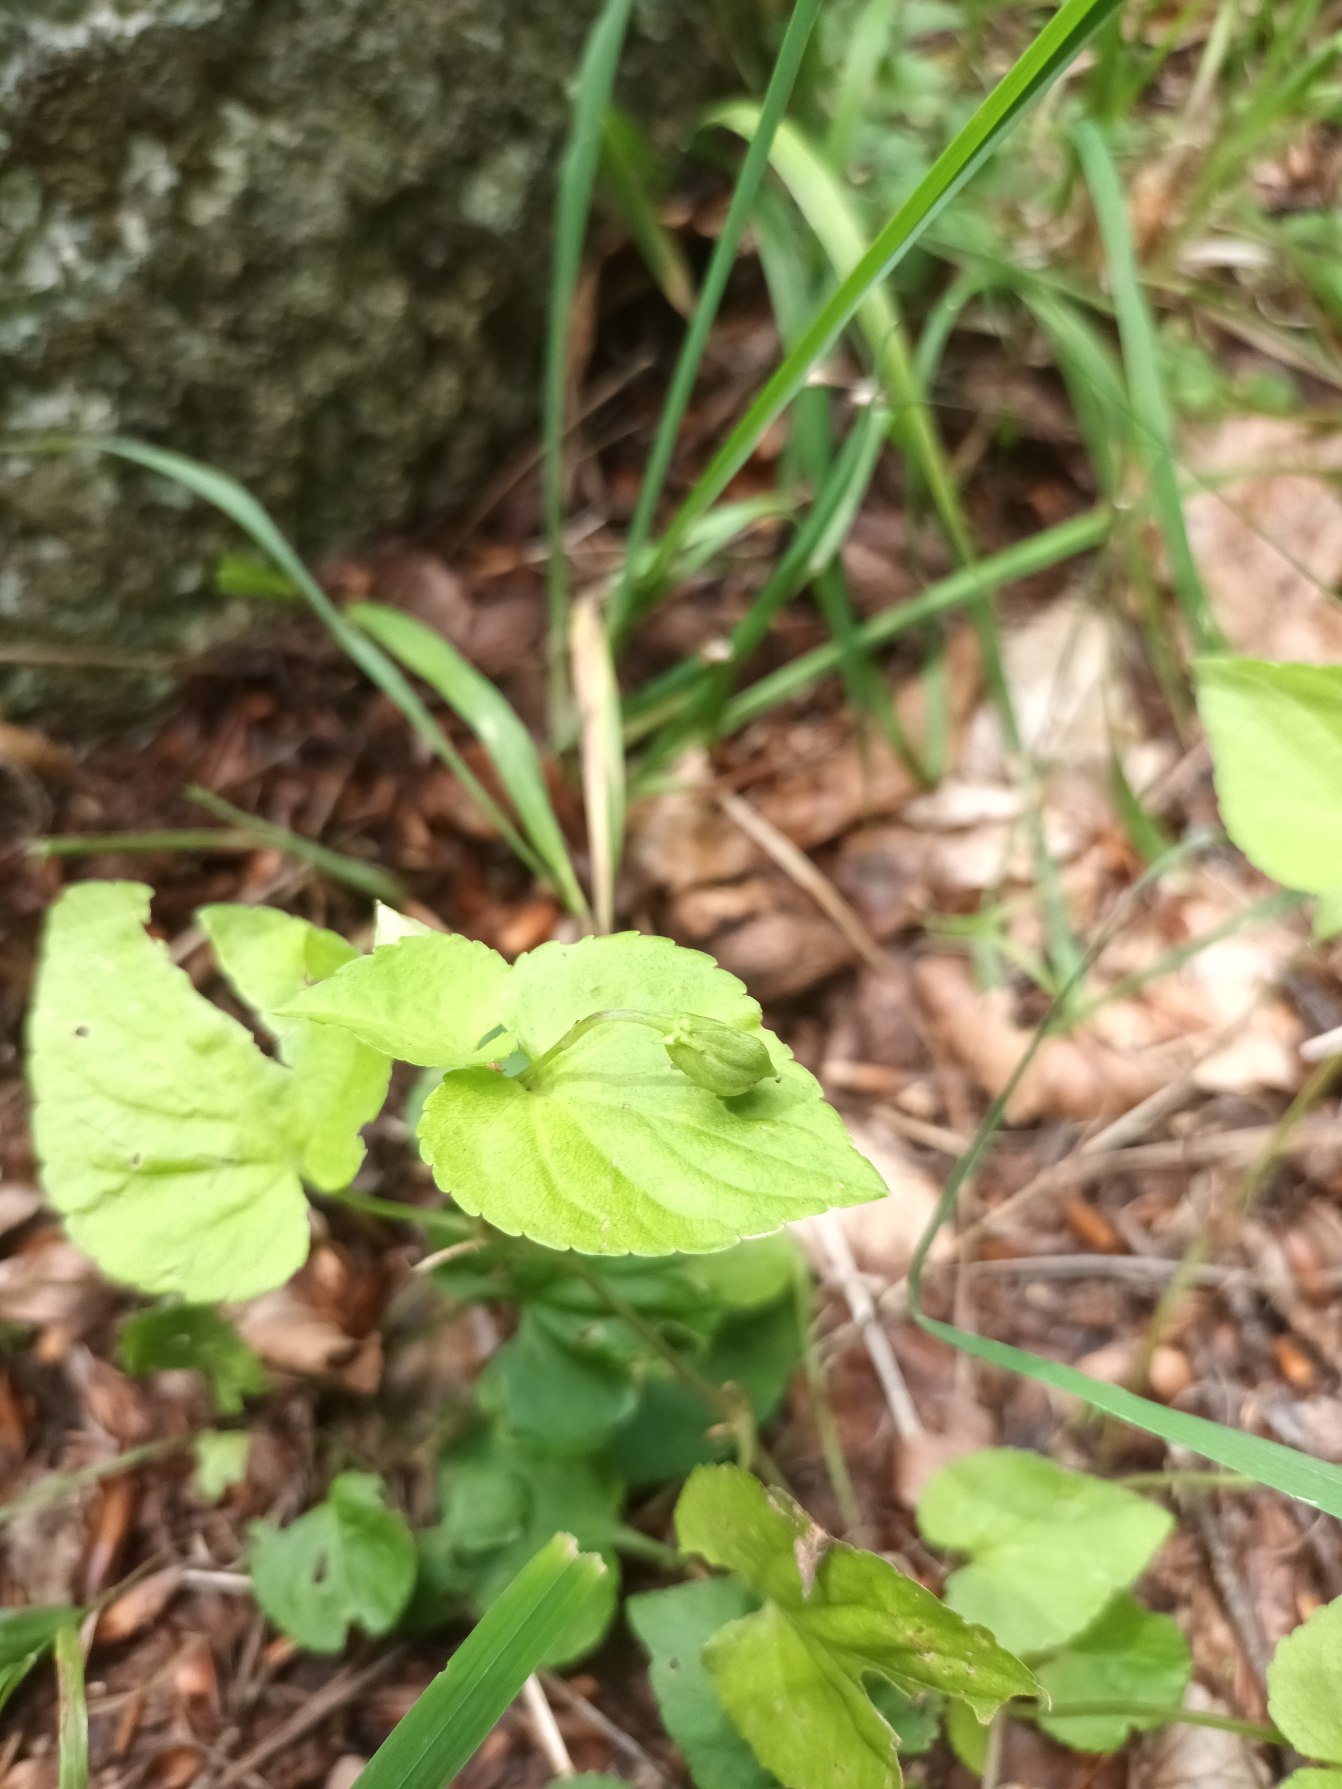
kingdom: Plantae
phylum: Tracheophyta
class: Magnoliopsida
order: Malpighiales
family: Violaceae
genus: Viola
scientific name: Viola reichenbachiana
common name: Skov-viol
